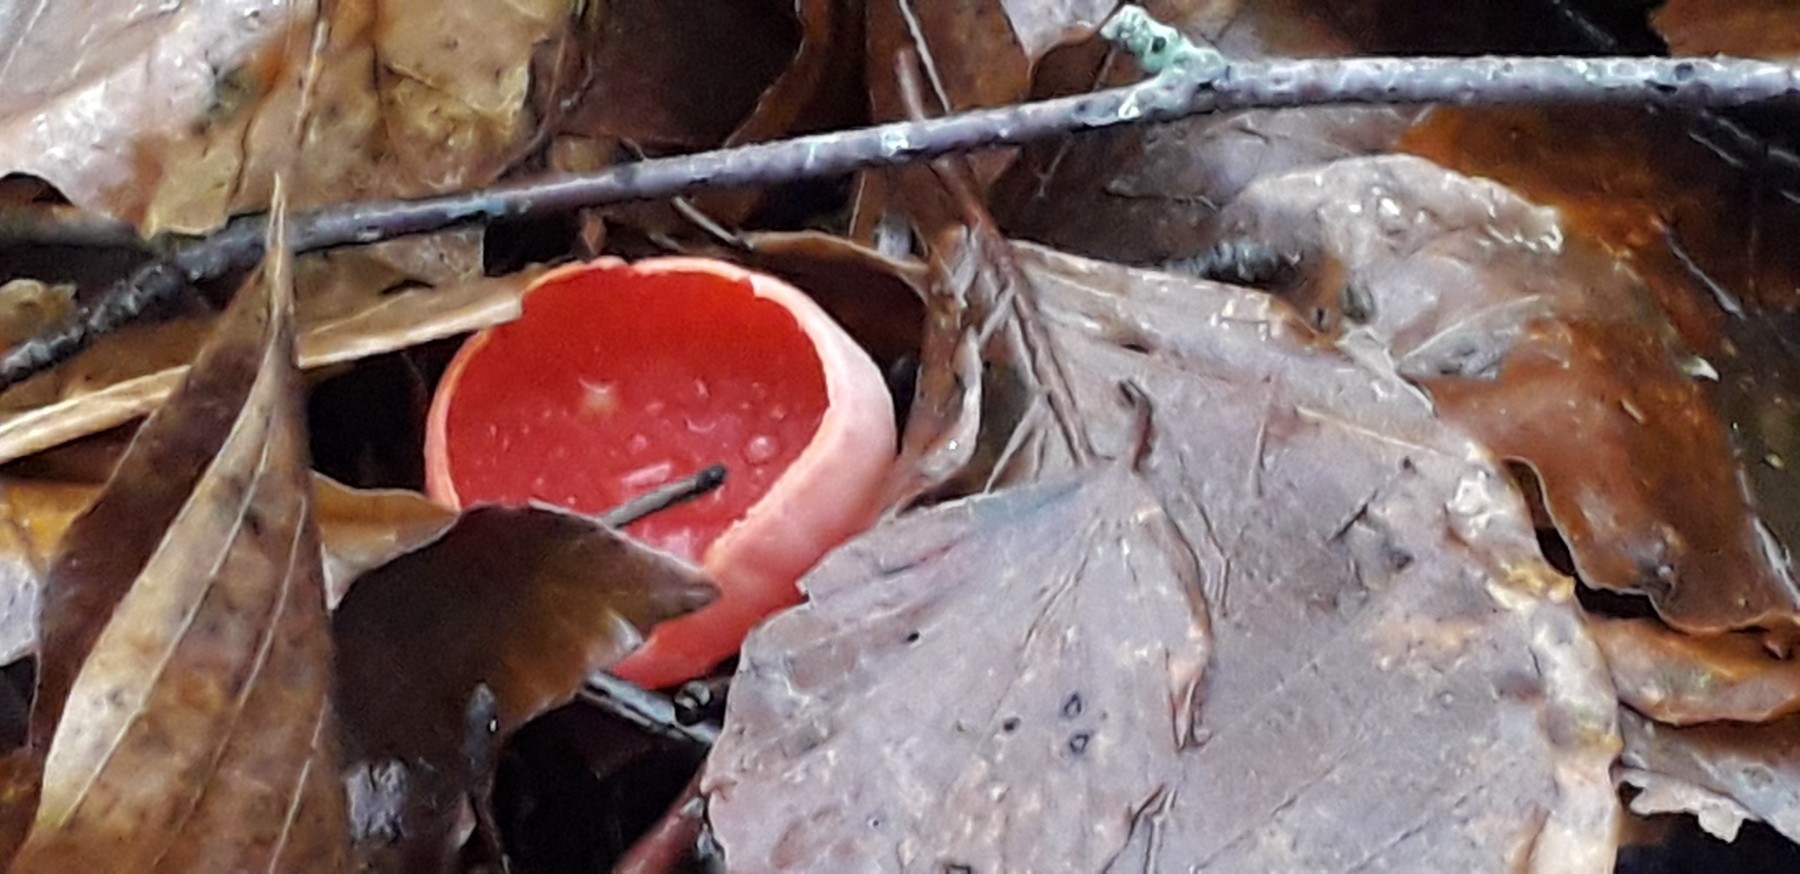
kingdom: Fungi
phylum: Ascomycota
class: Pezizomycetes
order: Pezizales
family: Sarcoscyphaceae
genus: Sarcoscypha
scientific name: Sarcoscypha coccinea
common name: skarlagen-pragtbæger
